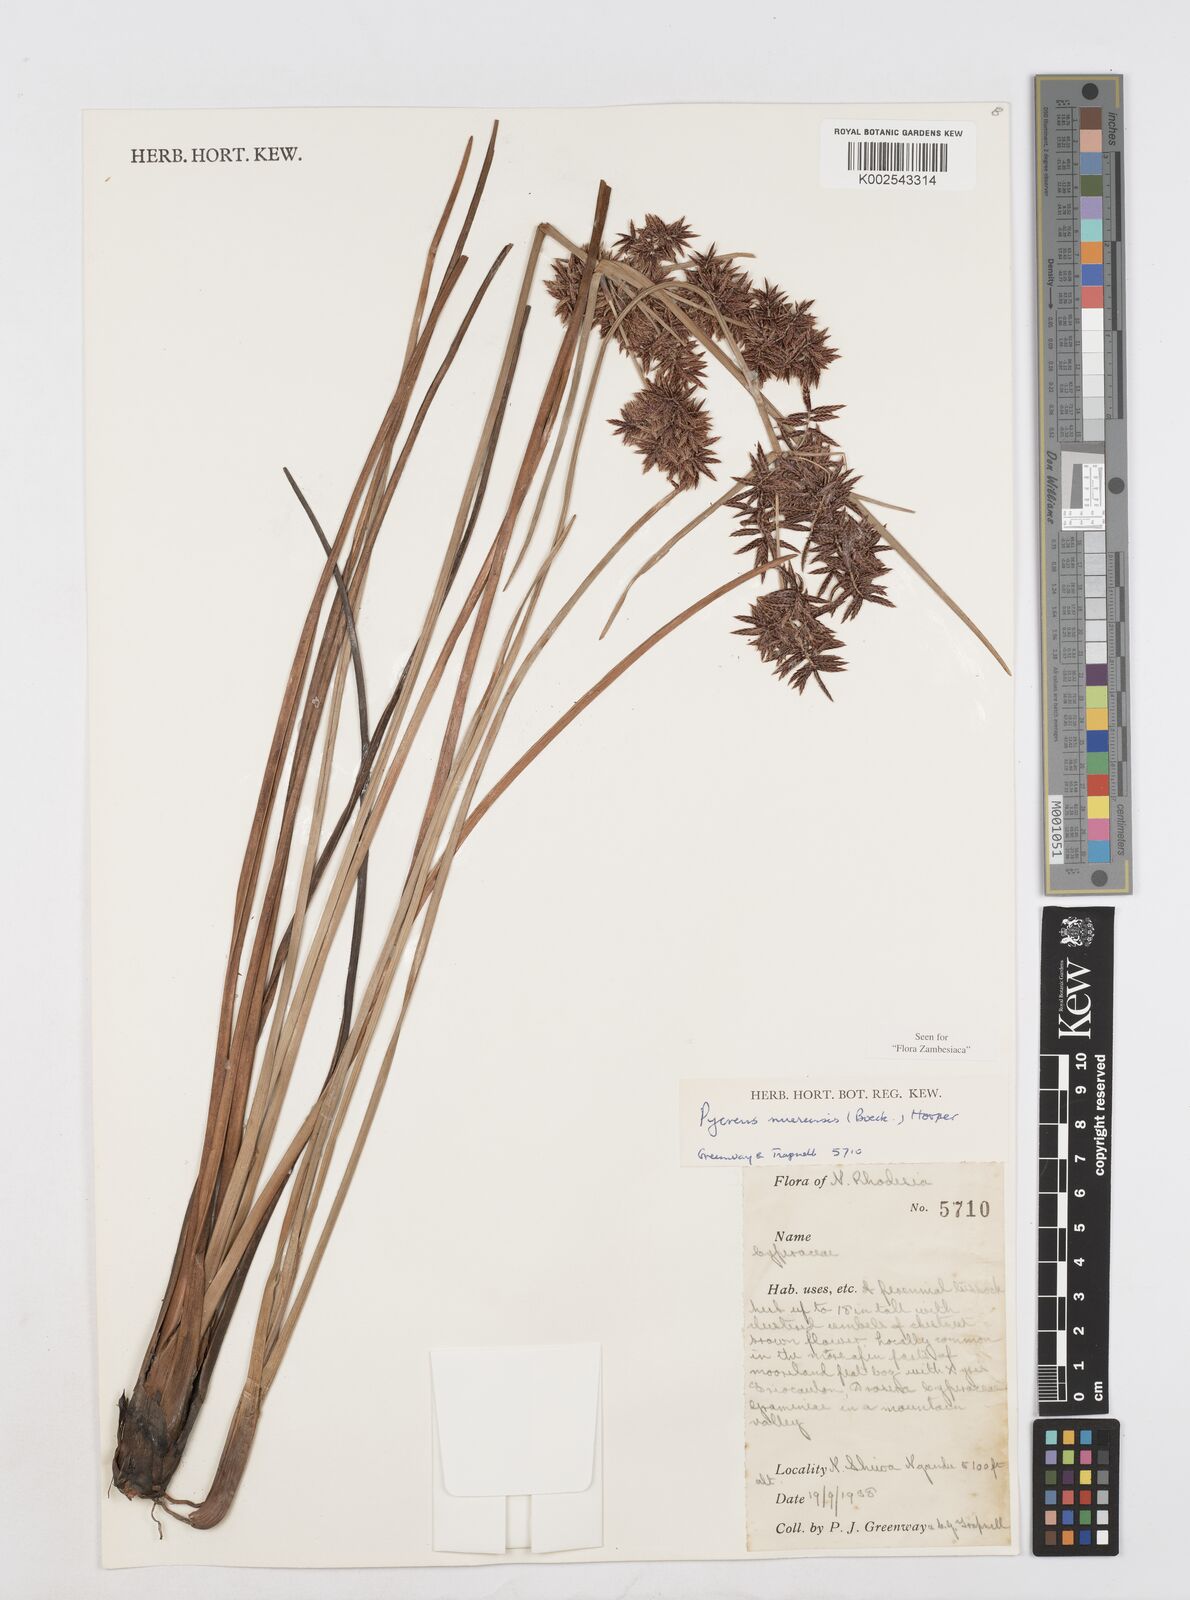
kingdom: Plantae
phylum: Tracheophyta
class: Liliopsida
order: Poales
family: Cyperaceae
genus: Cyperus
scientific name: Cyperus nuerensis
